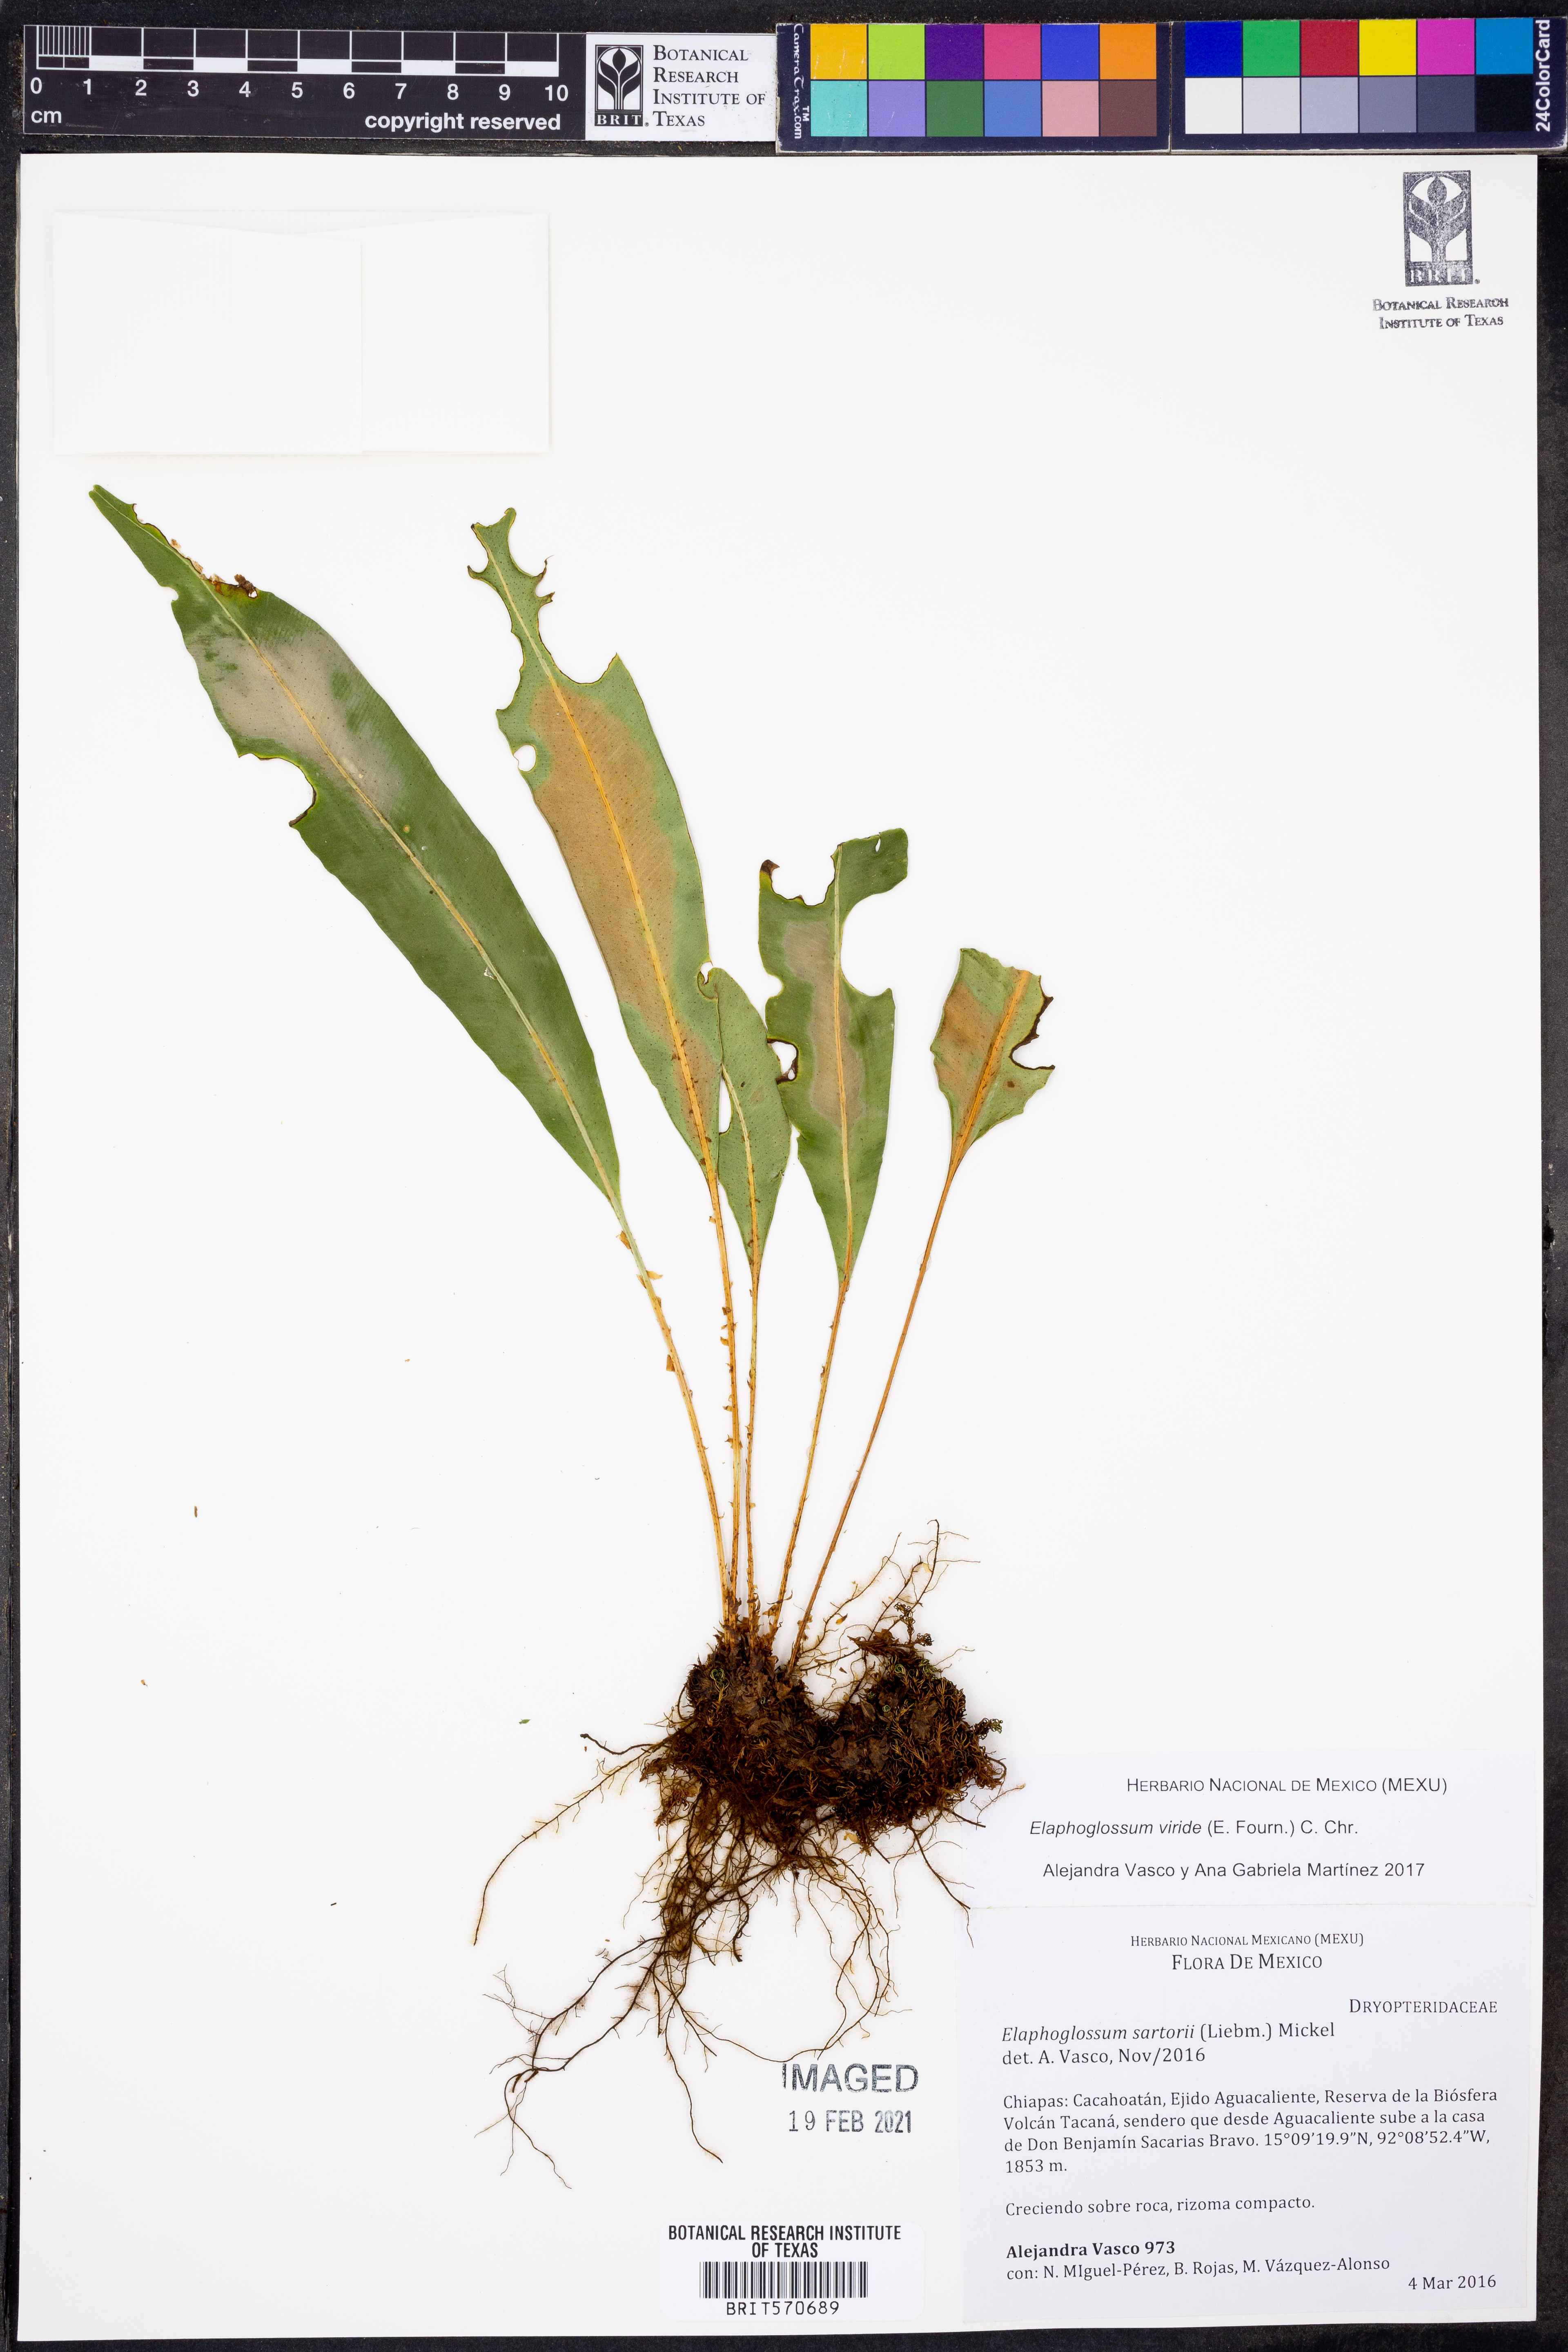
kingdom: Plantae
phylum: Tracheophyta
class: Polypodiopsida
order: Polypodiales
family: Dryopteridaceae
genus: Elaphoglossum
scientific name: Elaphoglossum viride
